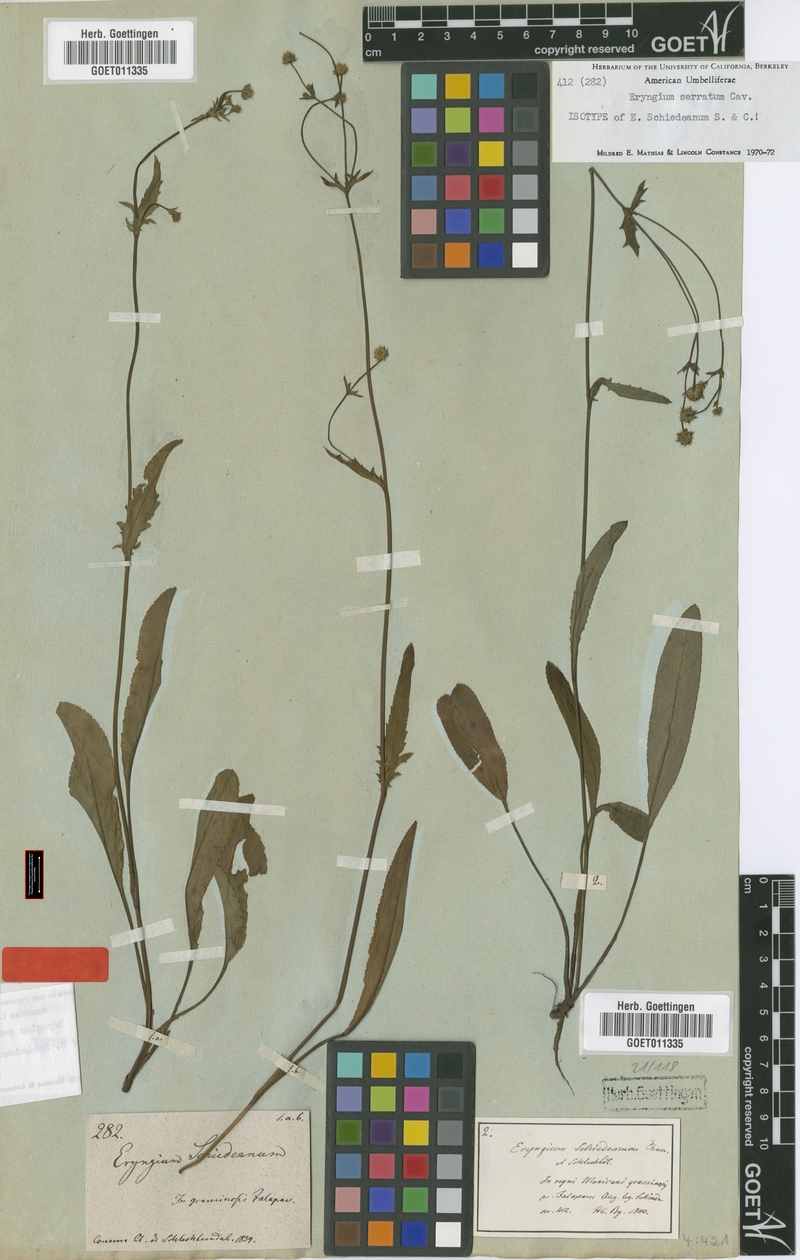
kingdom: Plantae
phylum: Tracheophyta
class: Magnoliopsida
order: Apiales
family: Apiaceae
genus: Eryngium
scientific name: Eryngium serratum
